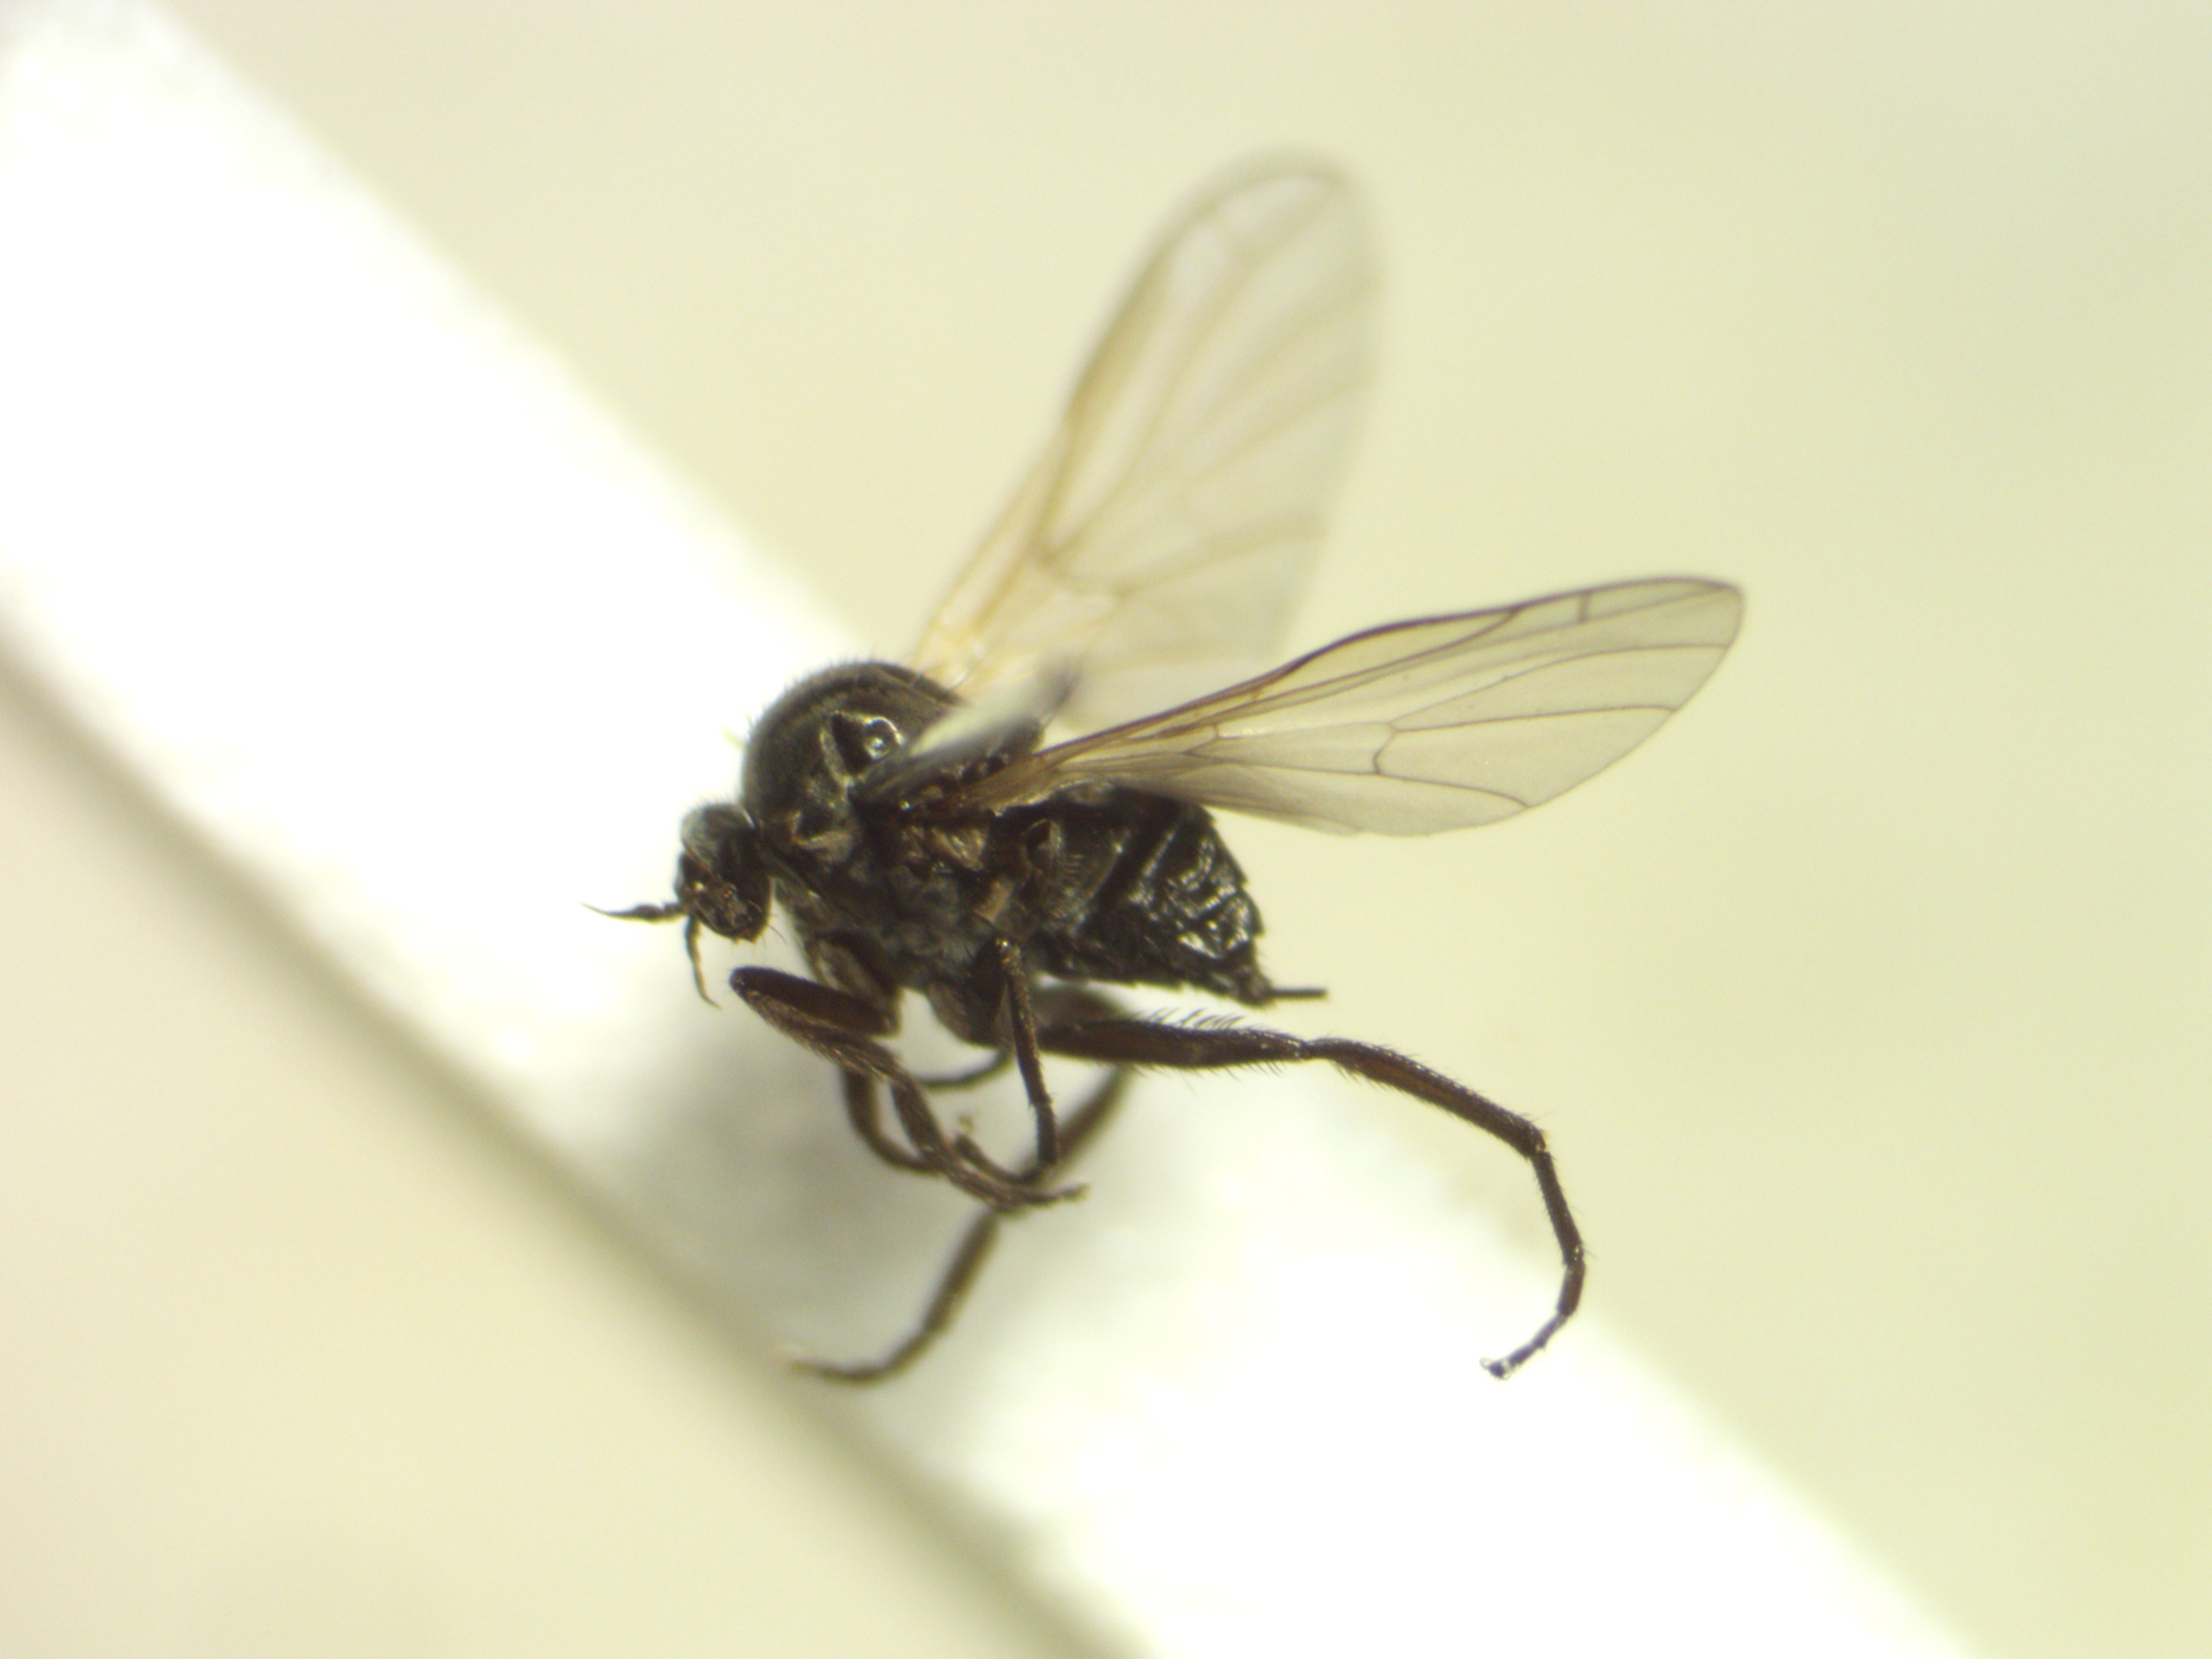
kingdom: Animalia
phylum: Arthropoda
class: Insecta
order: Diptera
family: Empididae
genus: Empis
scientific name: Empis chioptera
